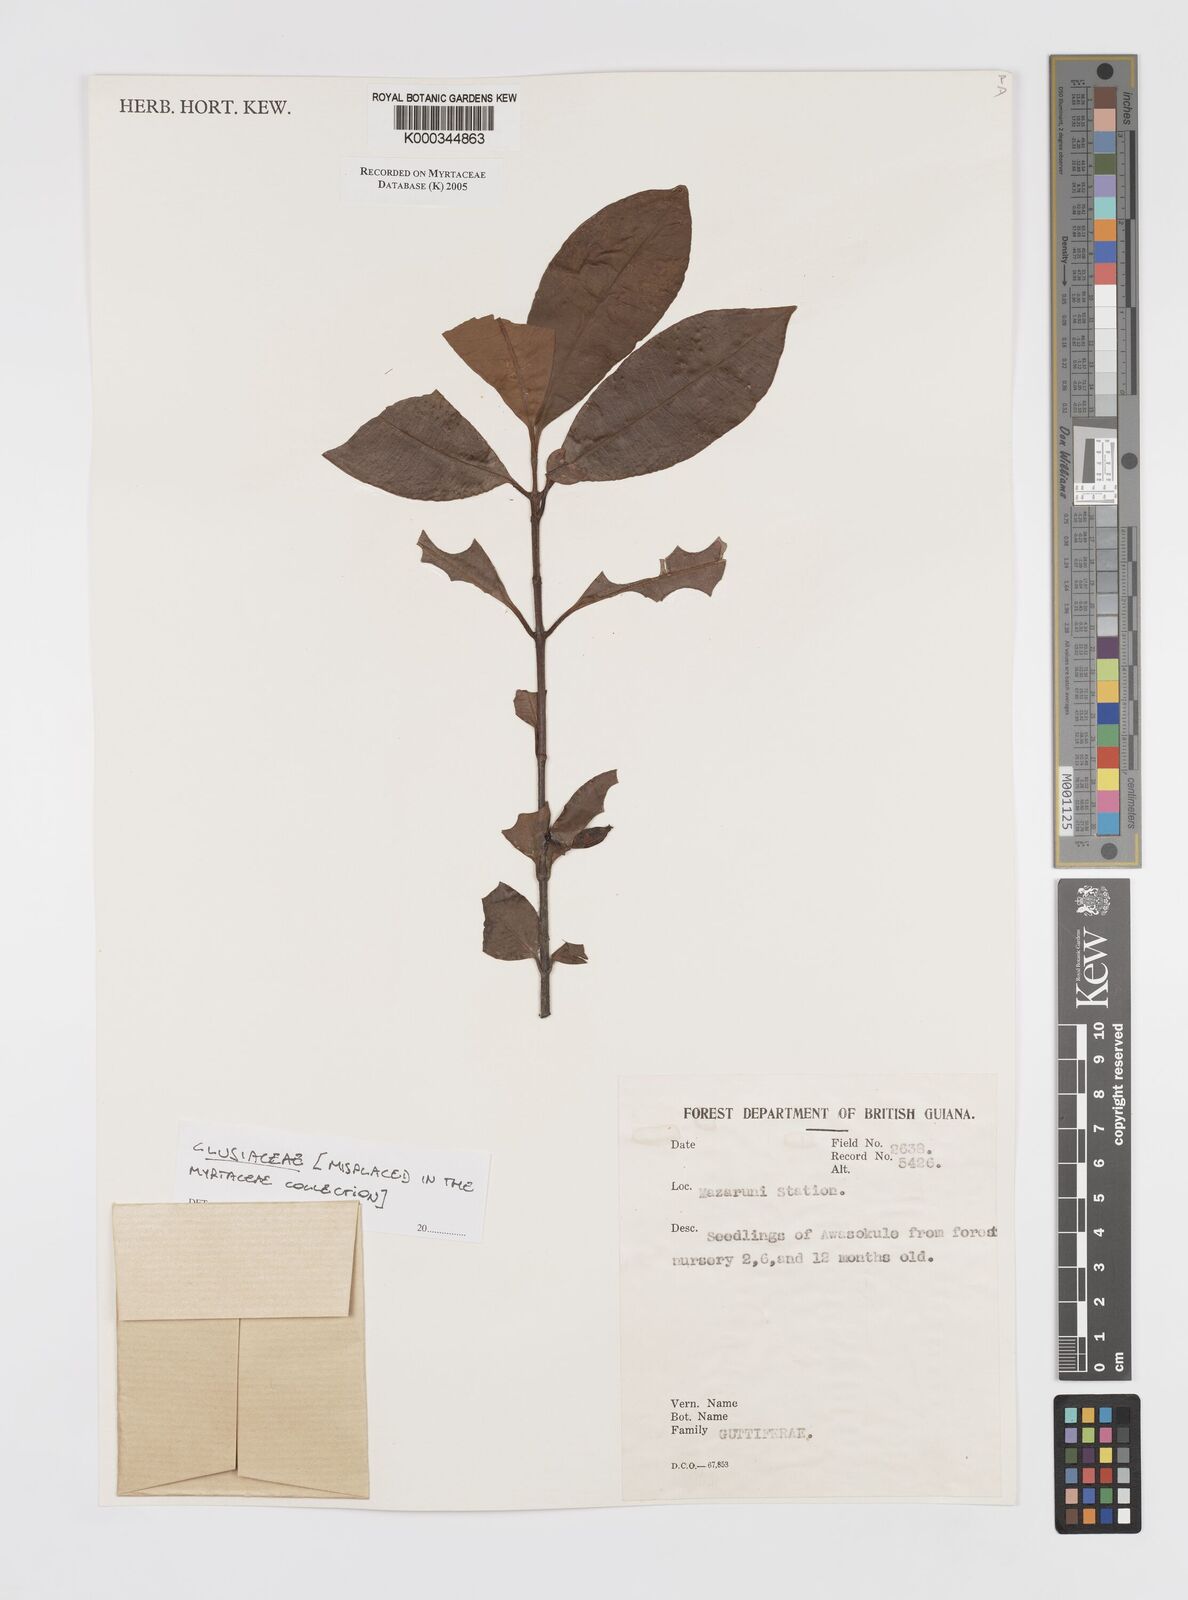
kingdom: Plantae
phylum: Tracheophyta
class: Magnoliopsida
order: Malpighiales
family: Clusiaceae
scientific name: Clusiaceae
